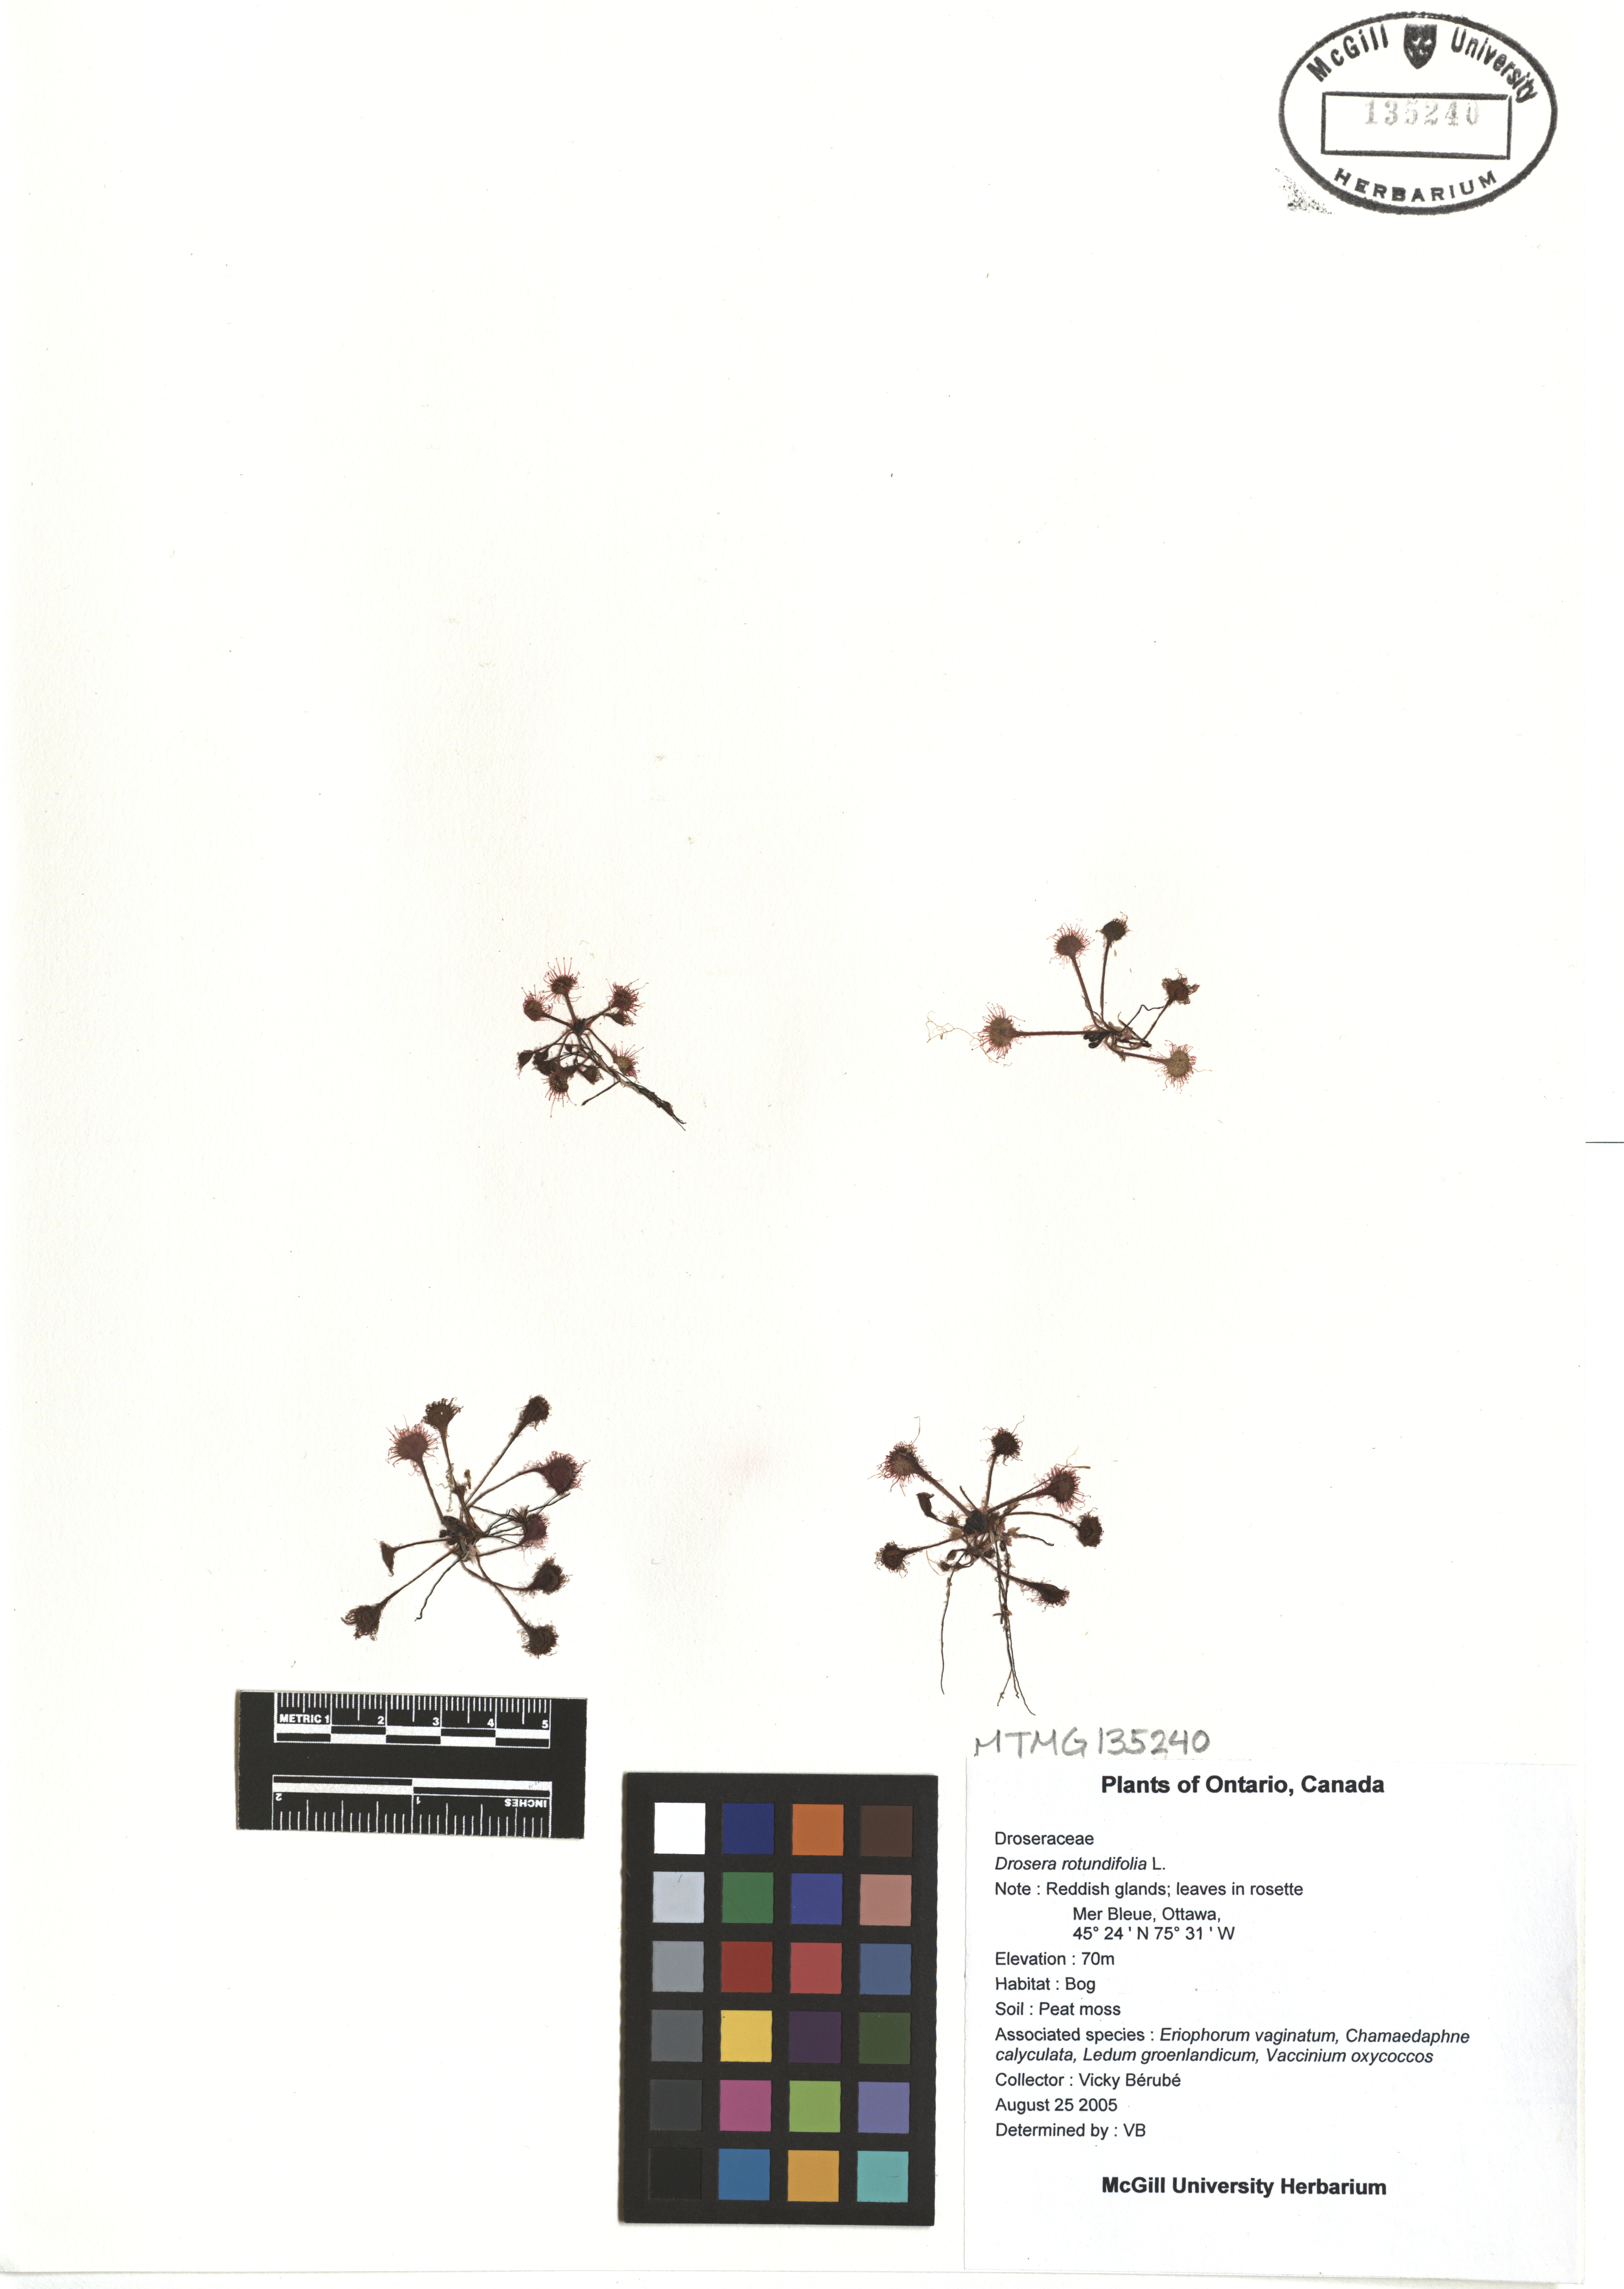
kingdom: Plantae
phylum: Tracheophyta
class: Magnoliopsida
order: Caryophyllales
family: Droseraceae
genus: Drosera
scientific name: Drosera rotundifolia
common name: Round-leaved sundew
